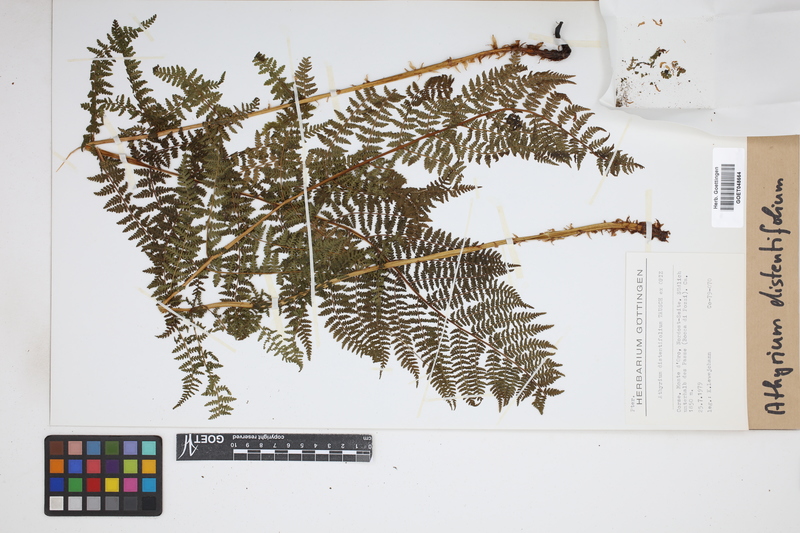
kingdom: Plantae
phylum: Tracheophyta
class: Polypodiopsida
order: Polypodiales
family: Athyriaceae
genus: Pseudathyrium
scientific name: Pseudathyrium alpestre
